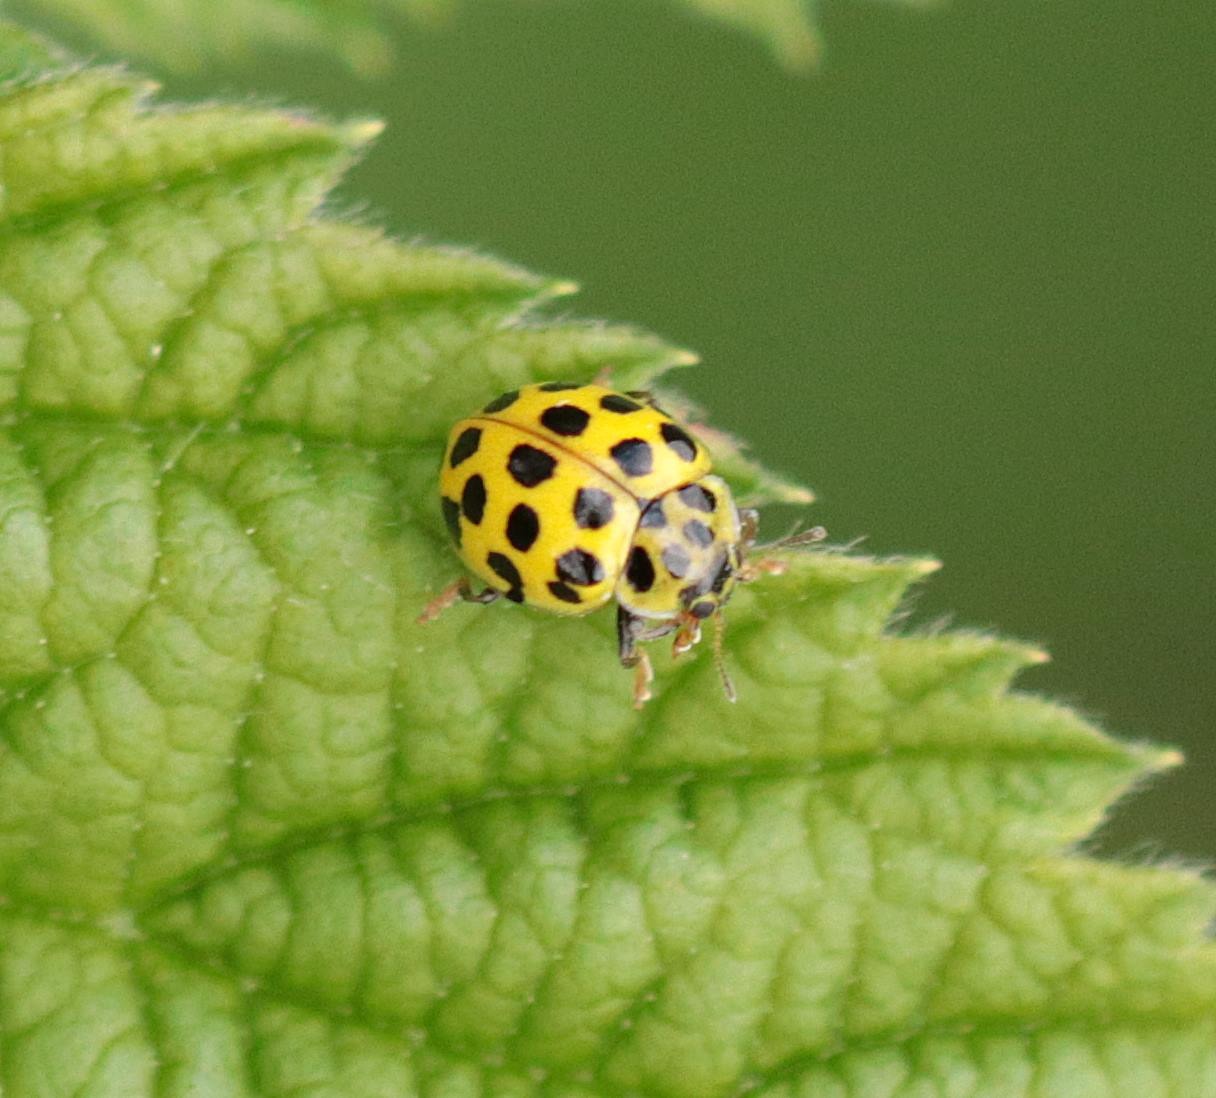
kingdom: Animalia
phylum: Arthropoda
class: Insecta
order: Coleoptera
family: Coccinellidae
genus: Psyllobora
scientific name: Psyllobora vigintiduopunctata
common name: Toogtyveplettet mariehøne
